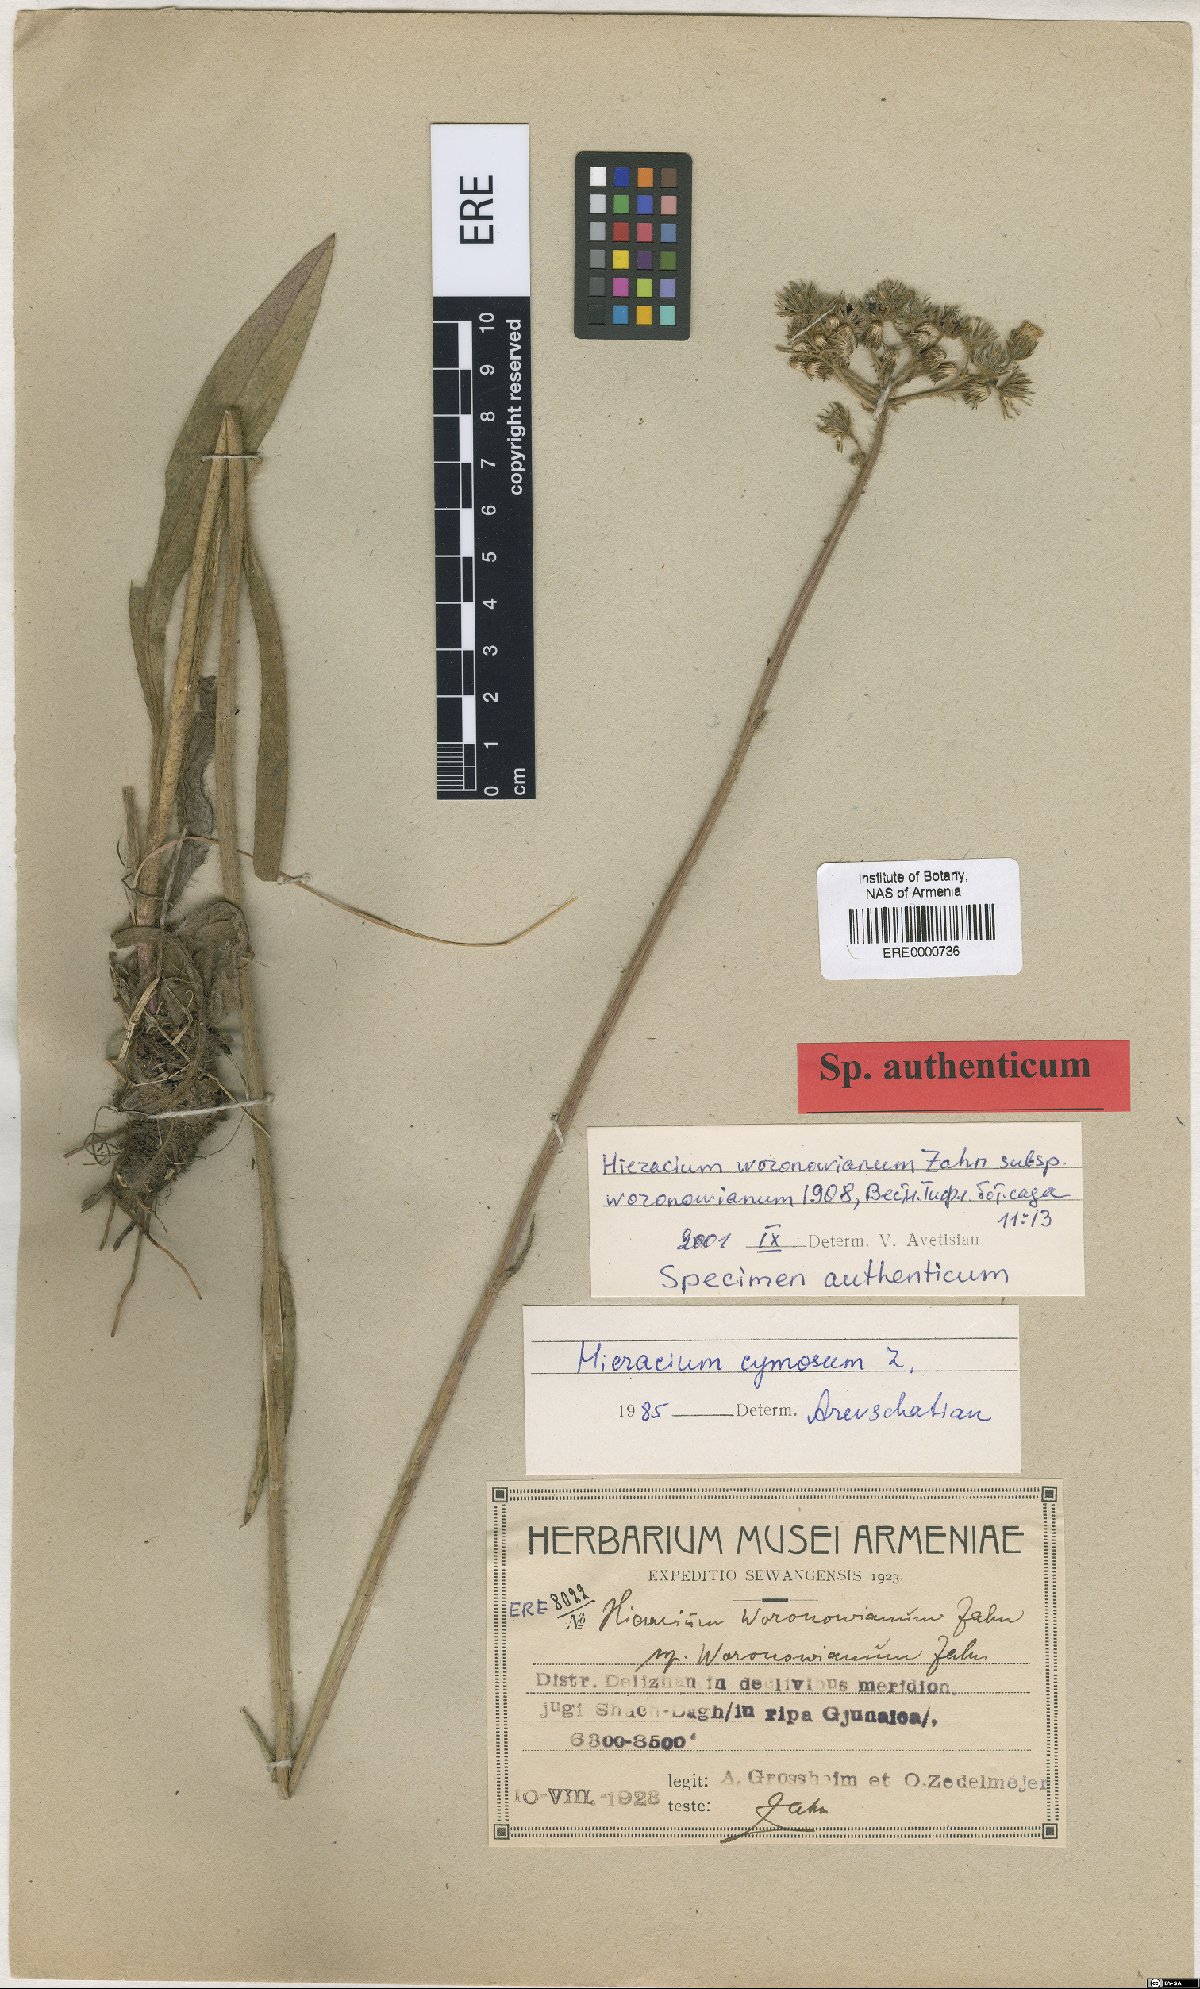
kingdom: Plantae
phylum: Tracheophyta
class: Magnoliopsida
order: Asterales
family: Asteraceae
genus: Pilosella
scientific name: Pilosella woronowiana
